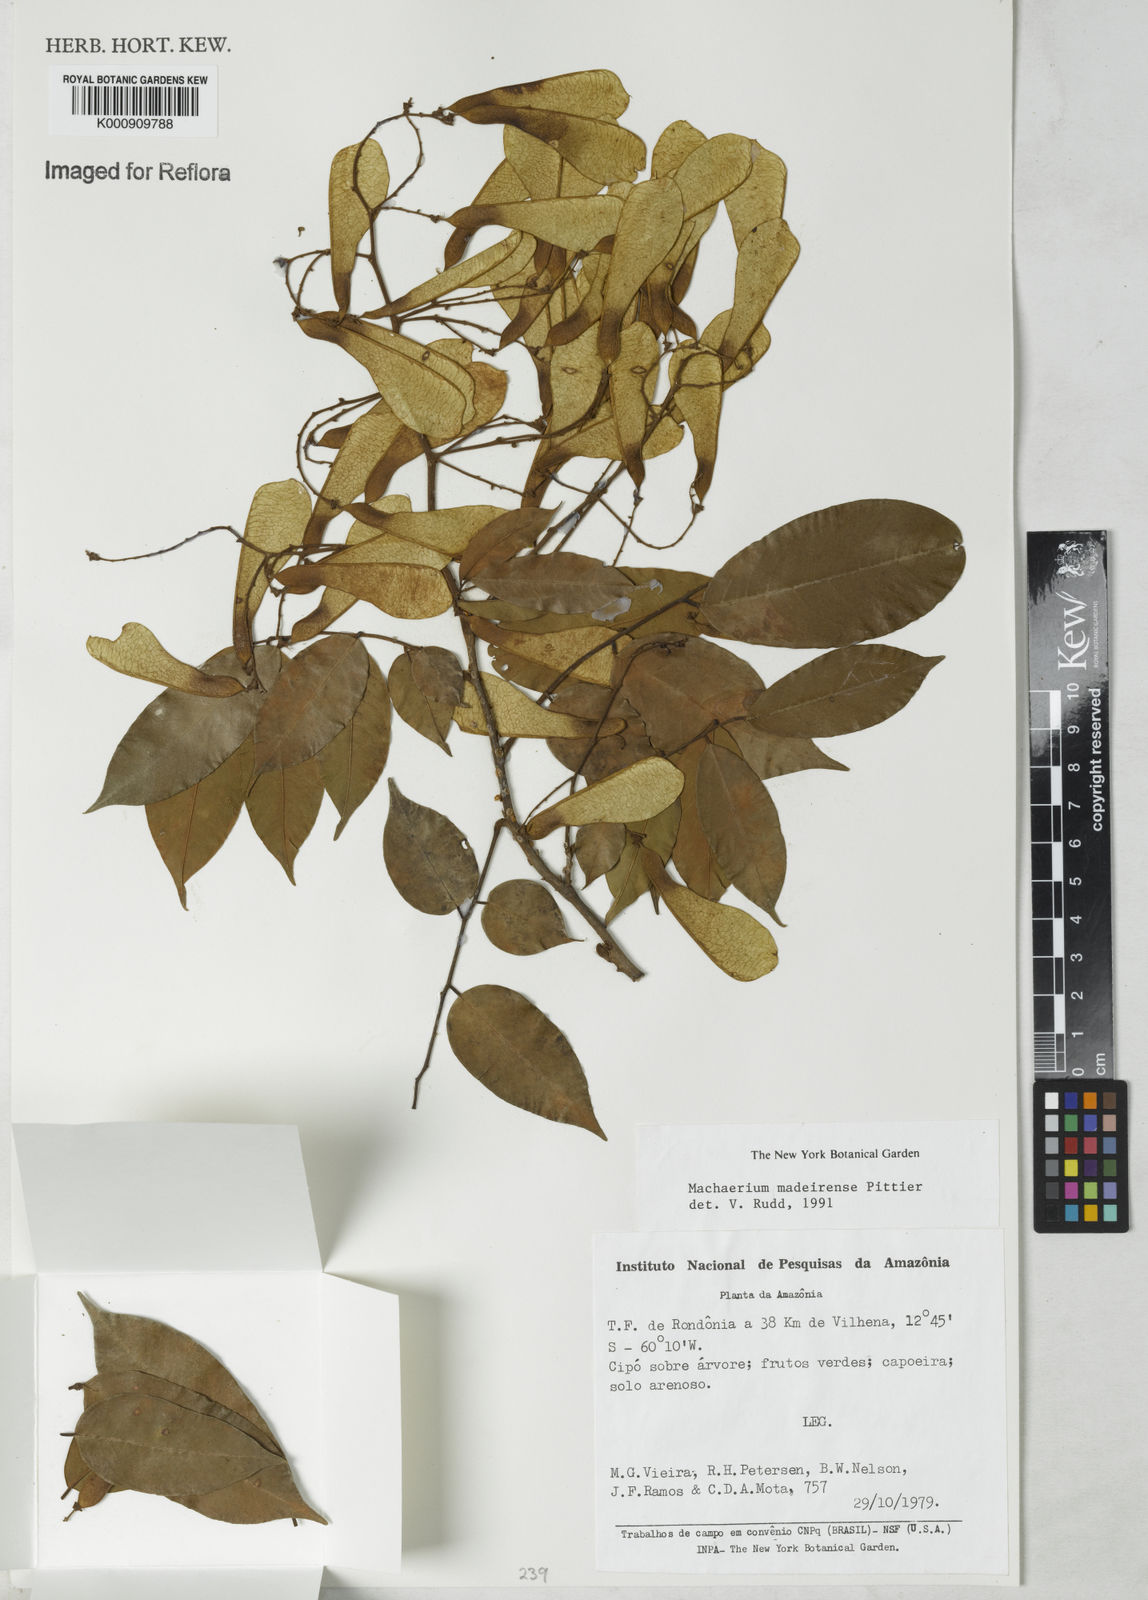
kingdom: Plantae
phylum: Tracheophyta
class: Magnoliopsida
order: Fabales
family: Fabaceae
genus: Machaerium
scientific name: Machaerium madeirense
